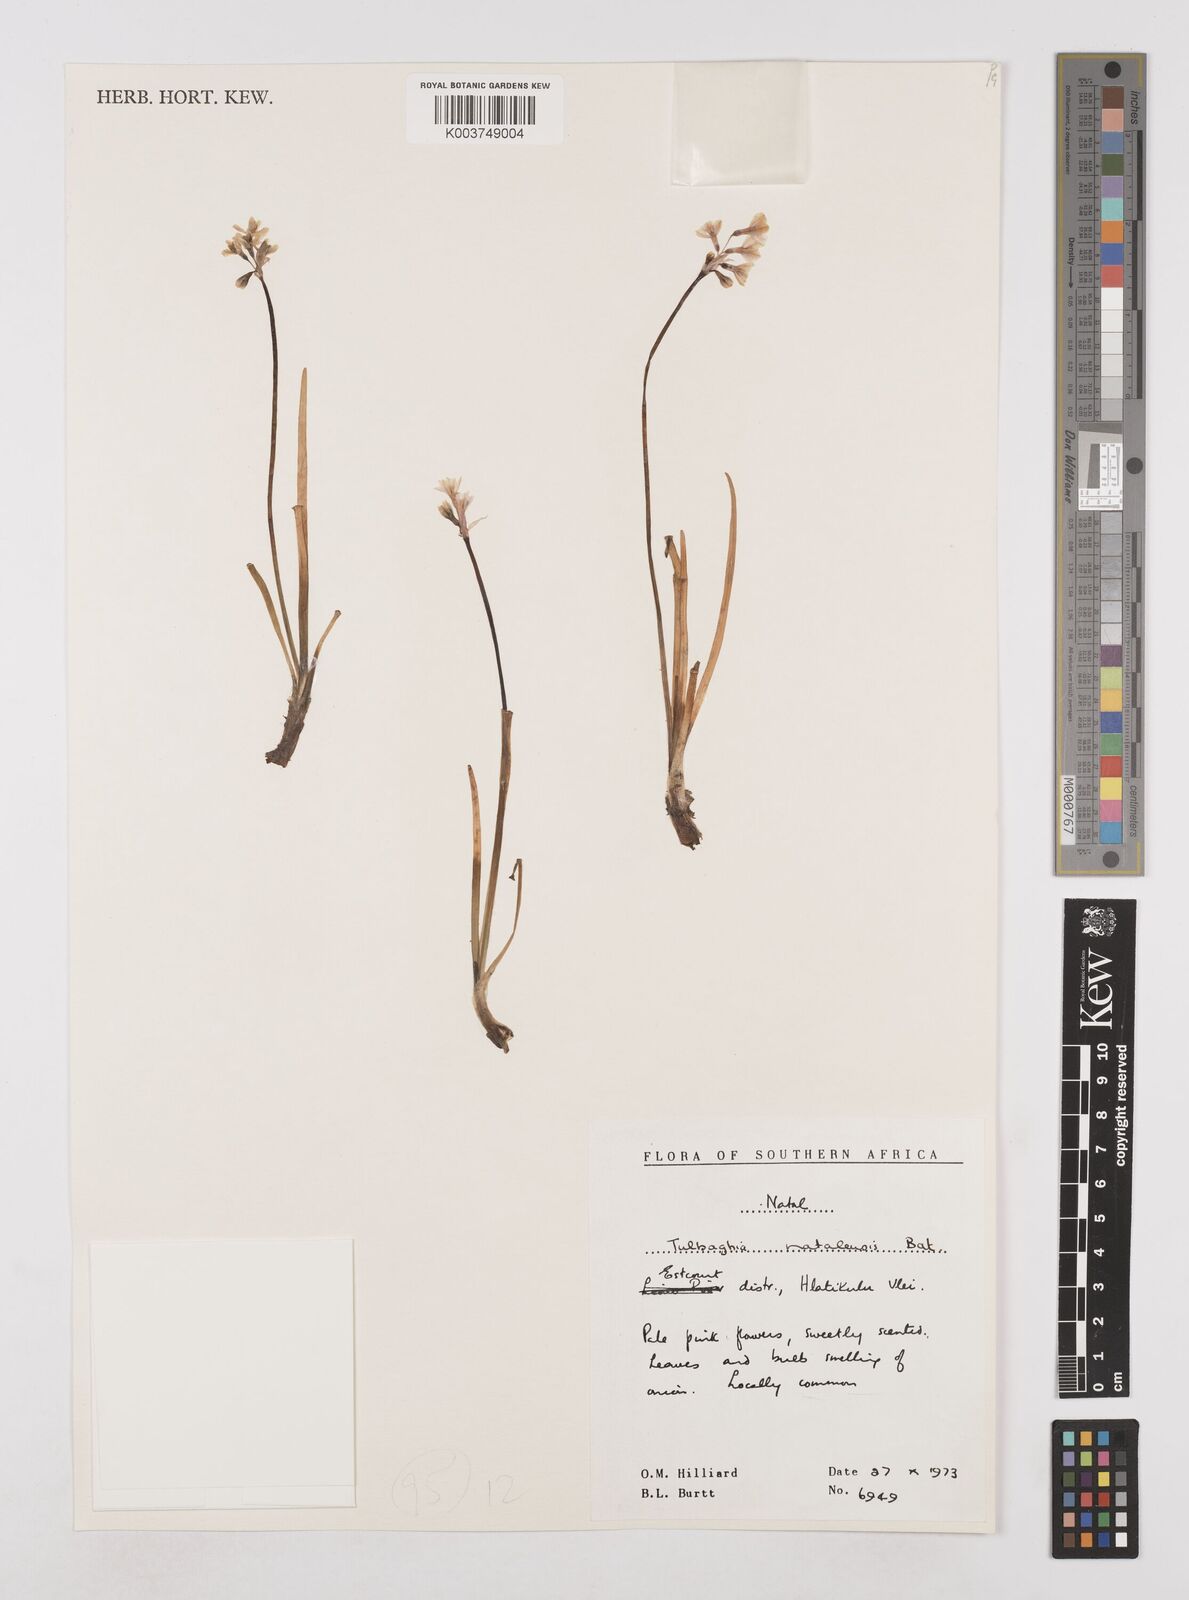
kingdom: Plantae
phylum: Tracheophyta
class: Liliopsida
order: Asparagales
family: Amaryllidaceae
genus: Tulbaghia
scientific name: Tulbaghia natalensis
